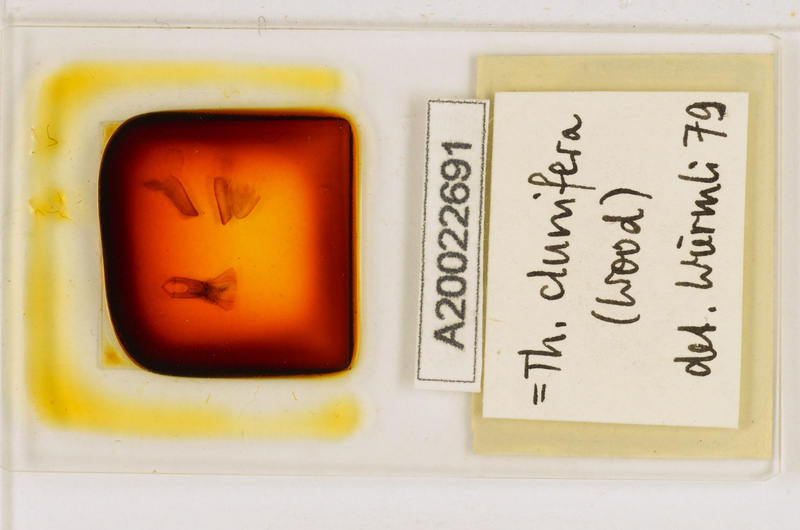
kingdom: Animalia
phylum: Arthropoda
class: Chilopoda
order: Scutigeromorpha
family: Scutigeridae
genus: Thereuopoda
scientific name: Thereuopoda clunifera
